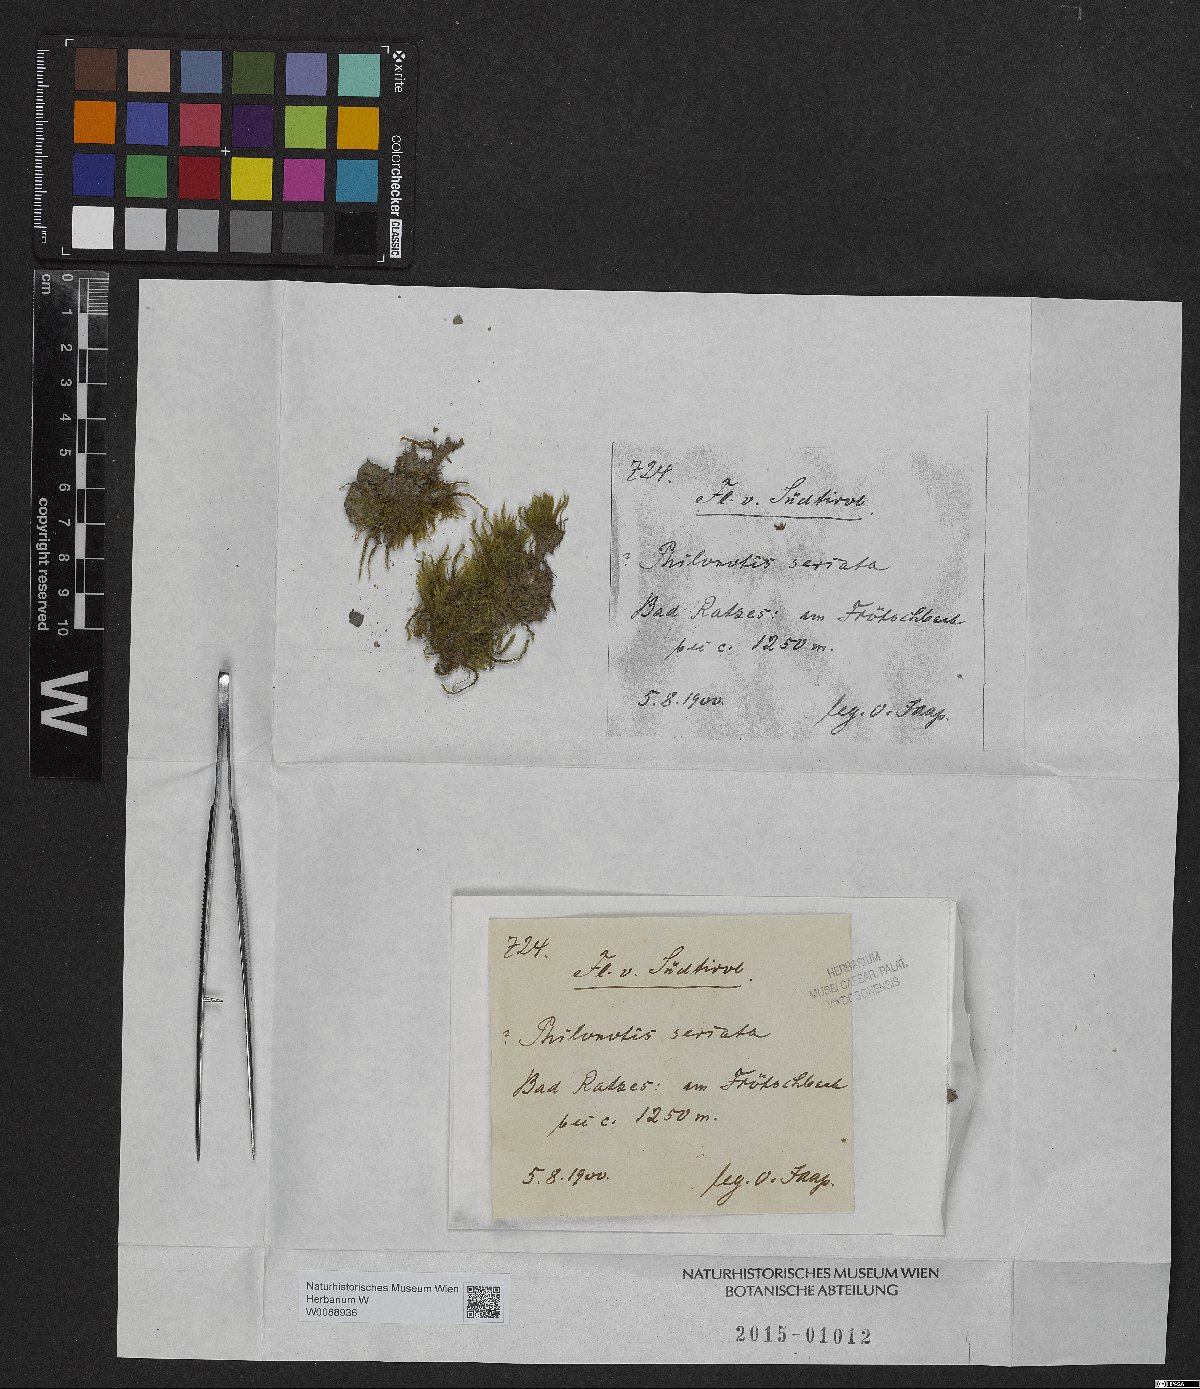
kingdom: Plantae
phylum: Bryophyta
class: Bryopsida
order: Bartramiales
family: Bartramiaceae
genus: Philonotis
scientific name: Philonotis seriata
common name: Spiral apple-moss
